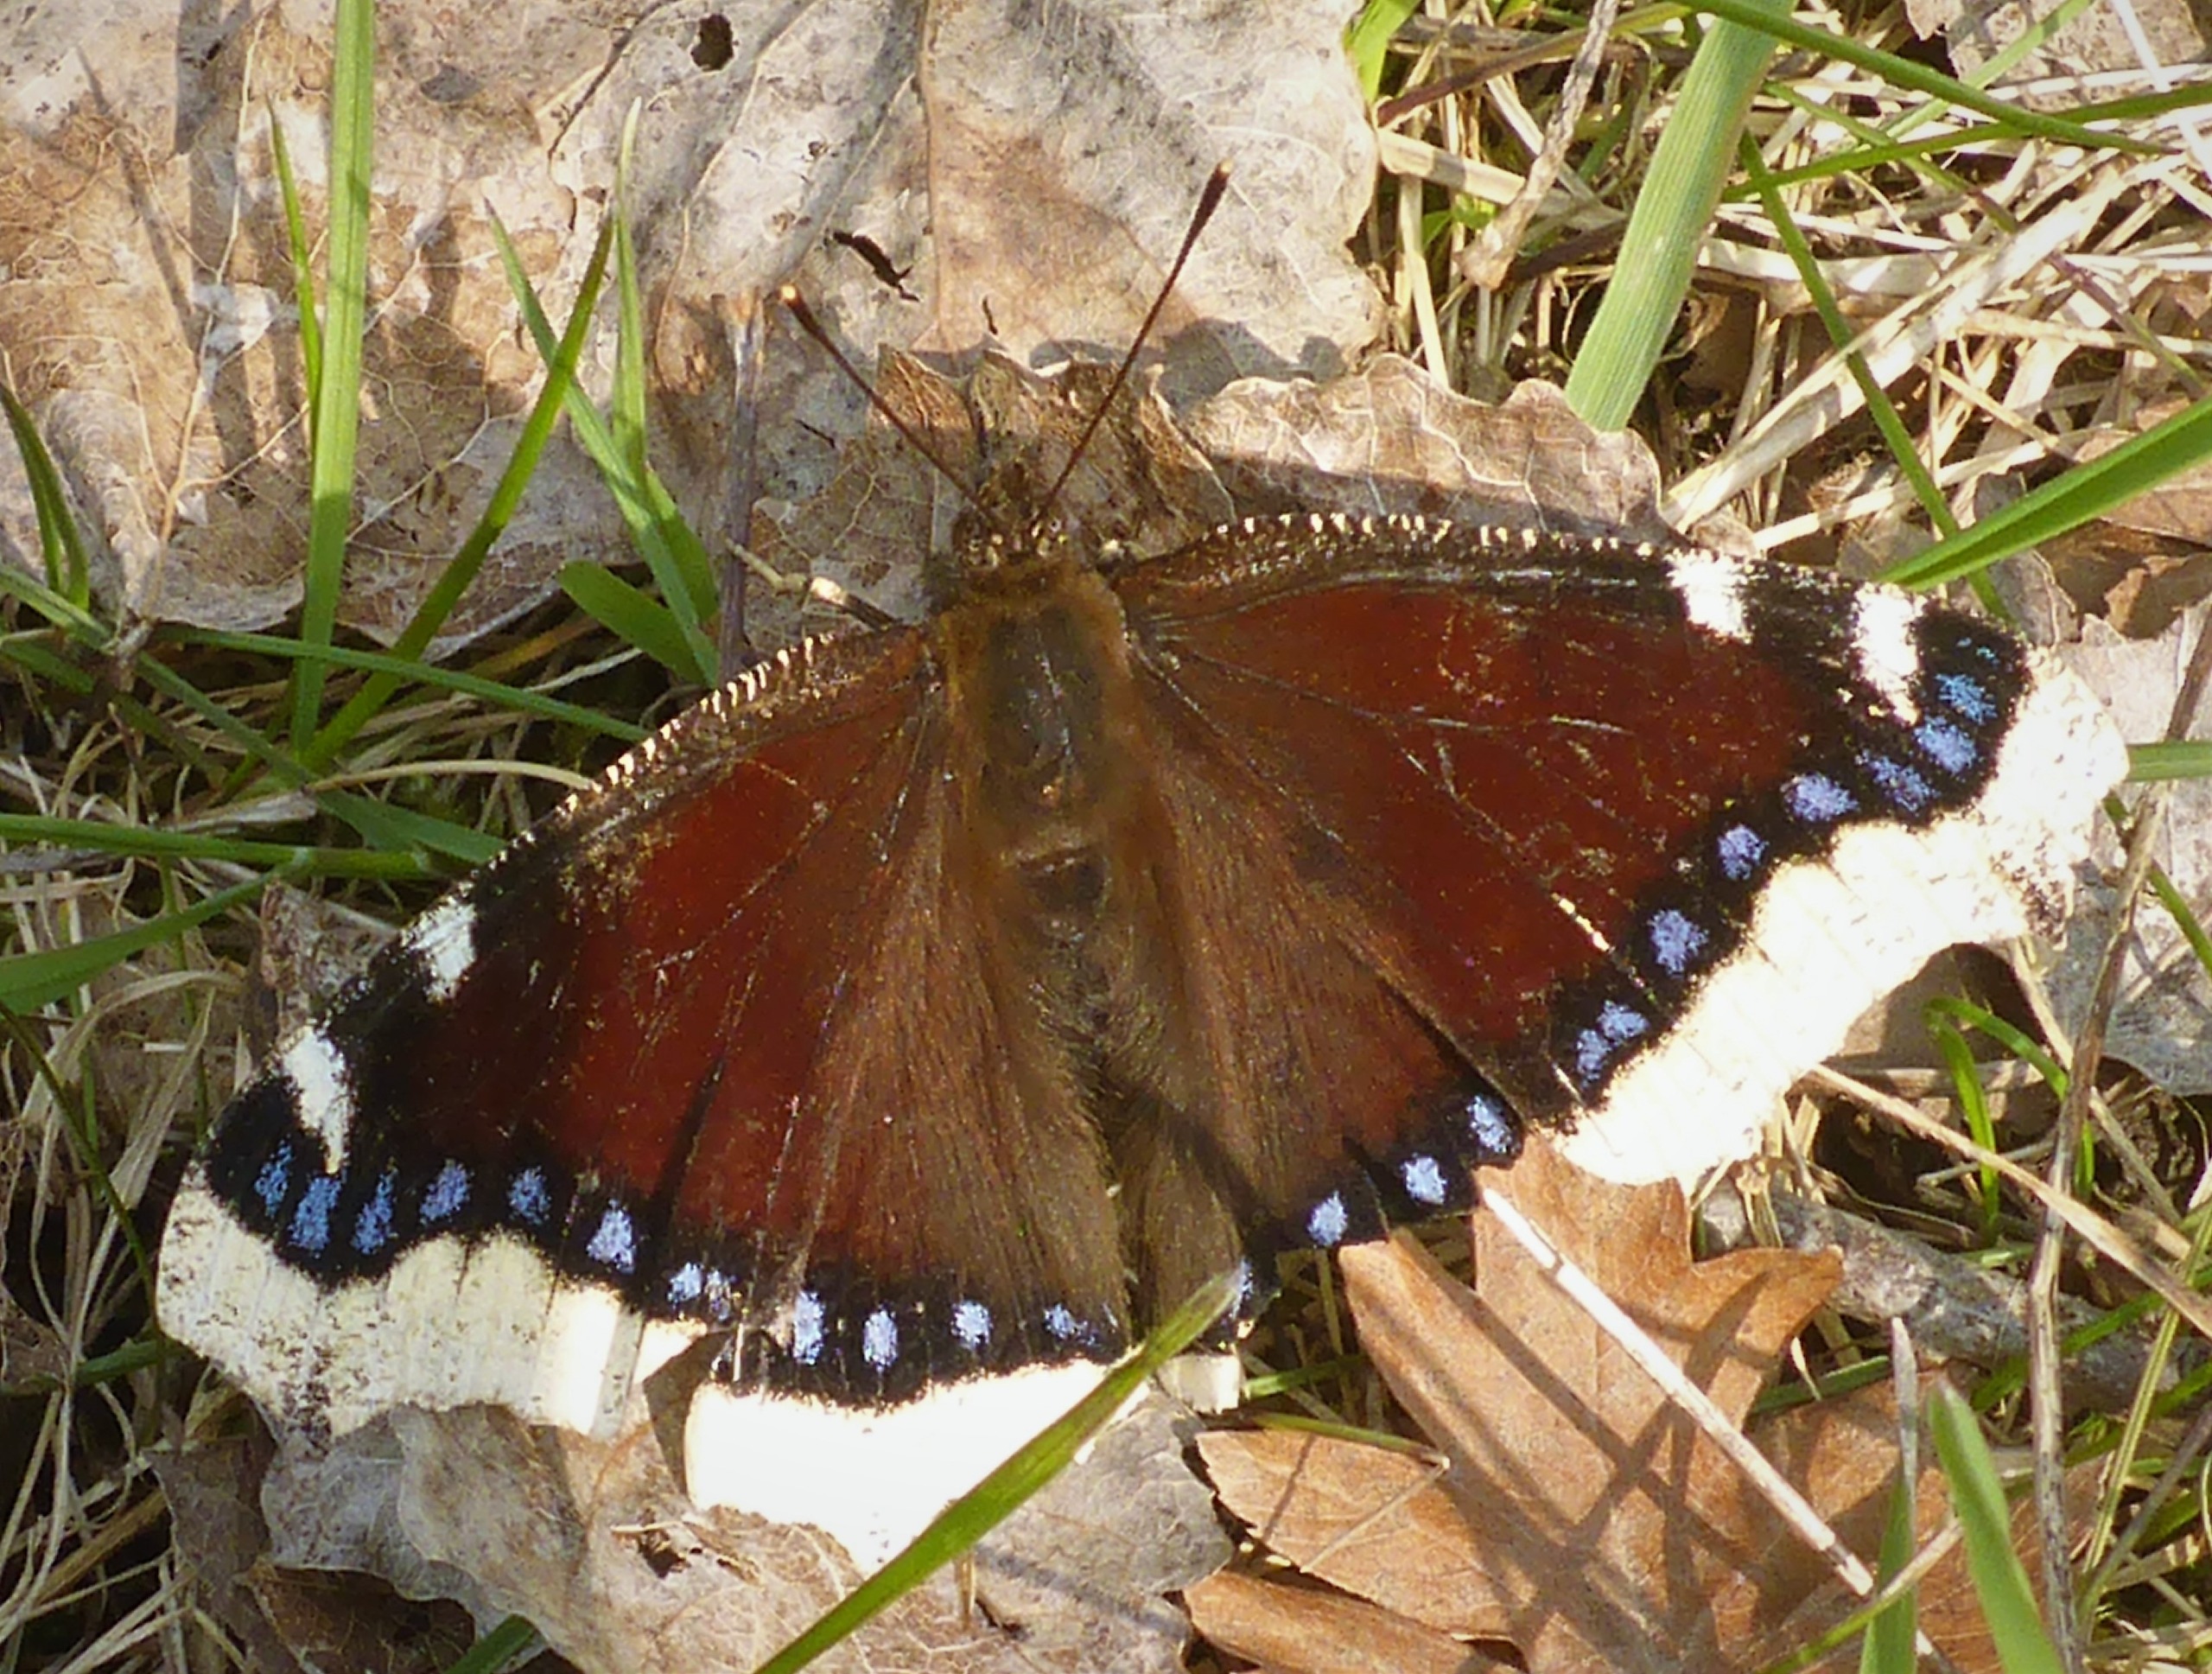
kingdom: Animalia
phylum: Arthropoda
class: Insecta
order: Lepidoptera
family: Nymphalidae
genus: Nymphalis
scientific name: Nymphalis antiopa
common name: Sørgekåbe
